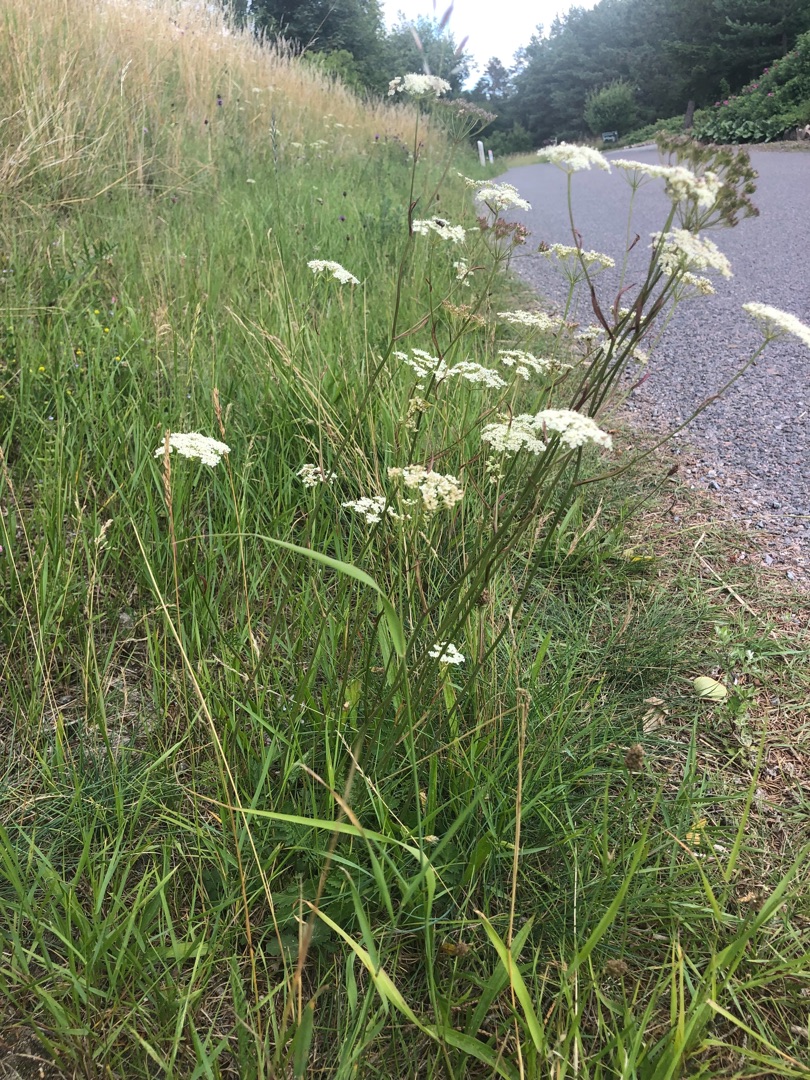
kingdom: Plantae
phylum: Tracheophyta
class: Magnoliopsida
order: Apiales
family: Apiaceae
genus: Pimpinella
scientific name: Pimpinella saxifraga
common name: Almindelig pimpinelle
